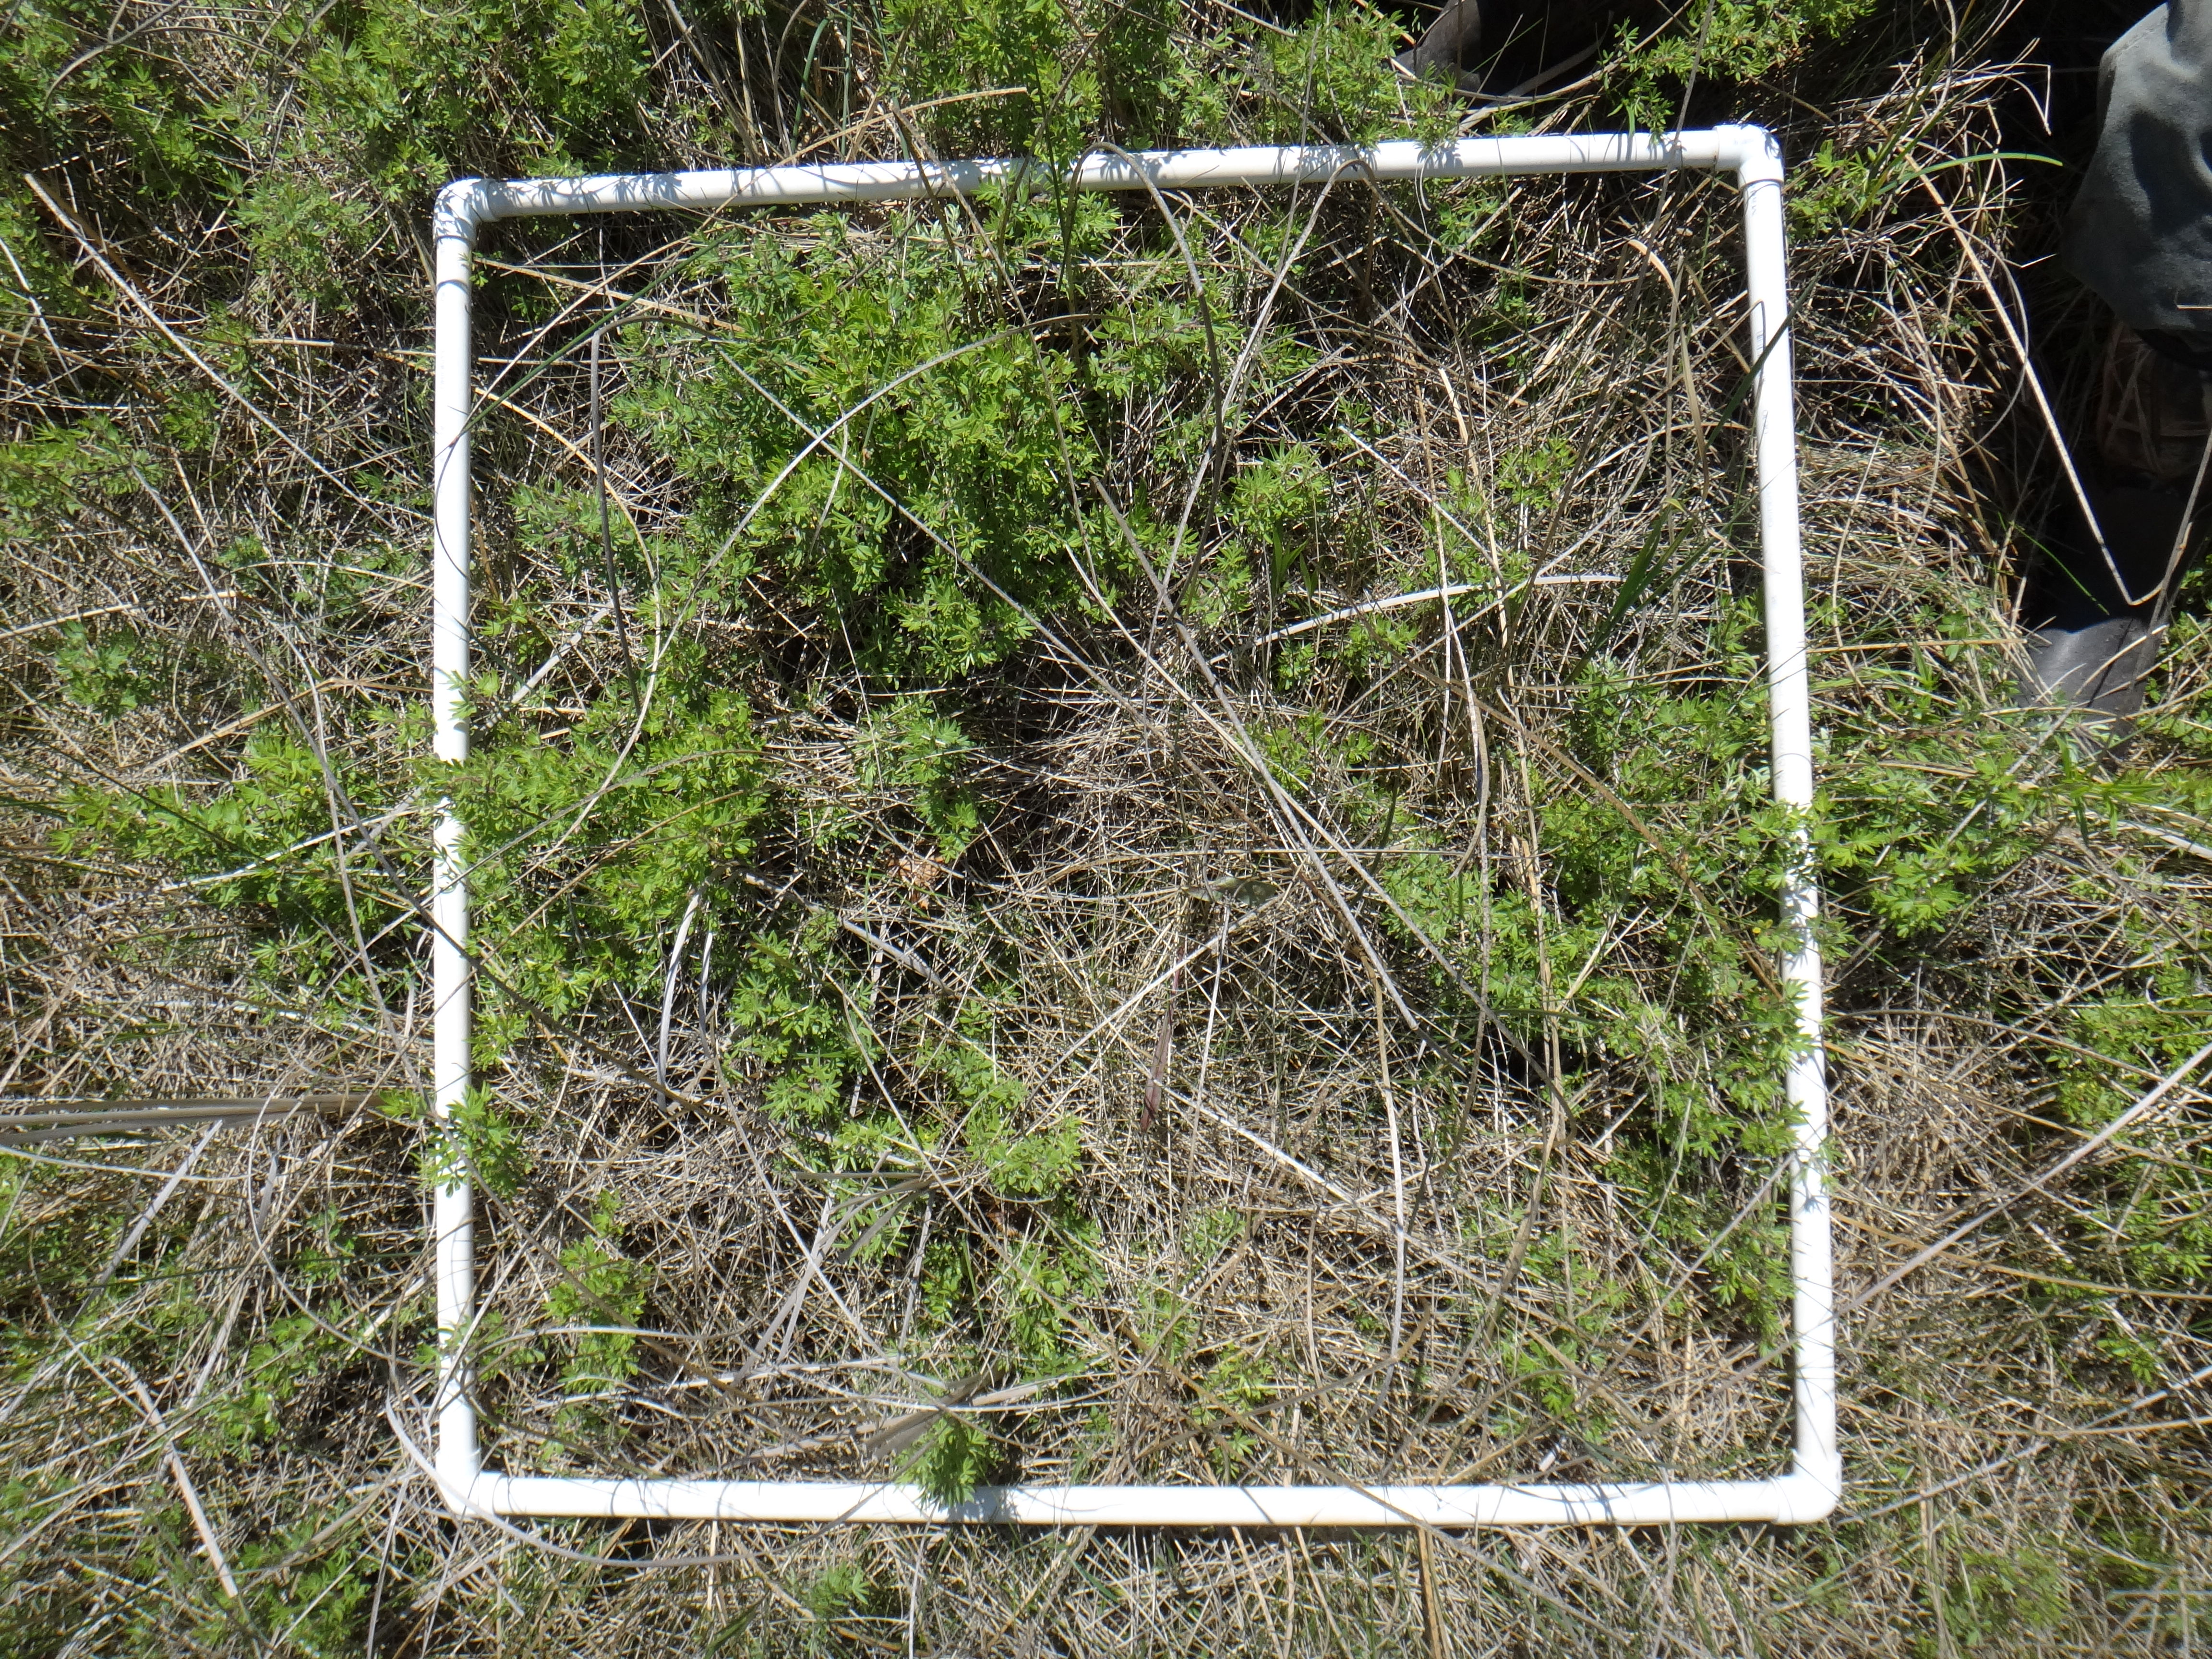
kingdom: Plantae
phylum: Tracheophyta
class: Magnoliopsida
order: Asterales
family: Asteraceae
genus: Solidago
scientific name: Solidago uliginosa
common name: Bog goldenrod
